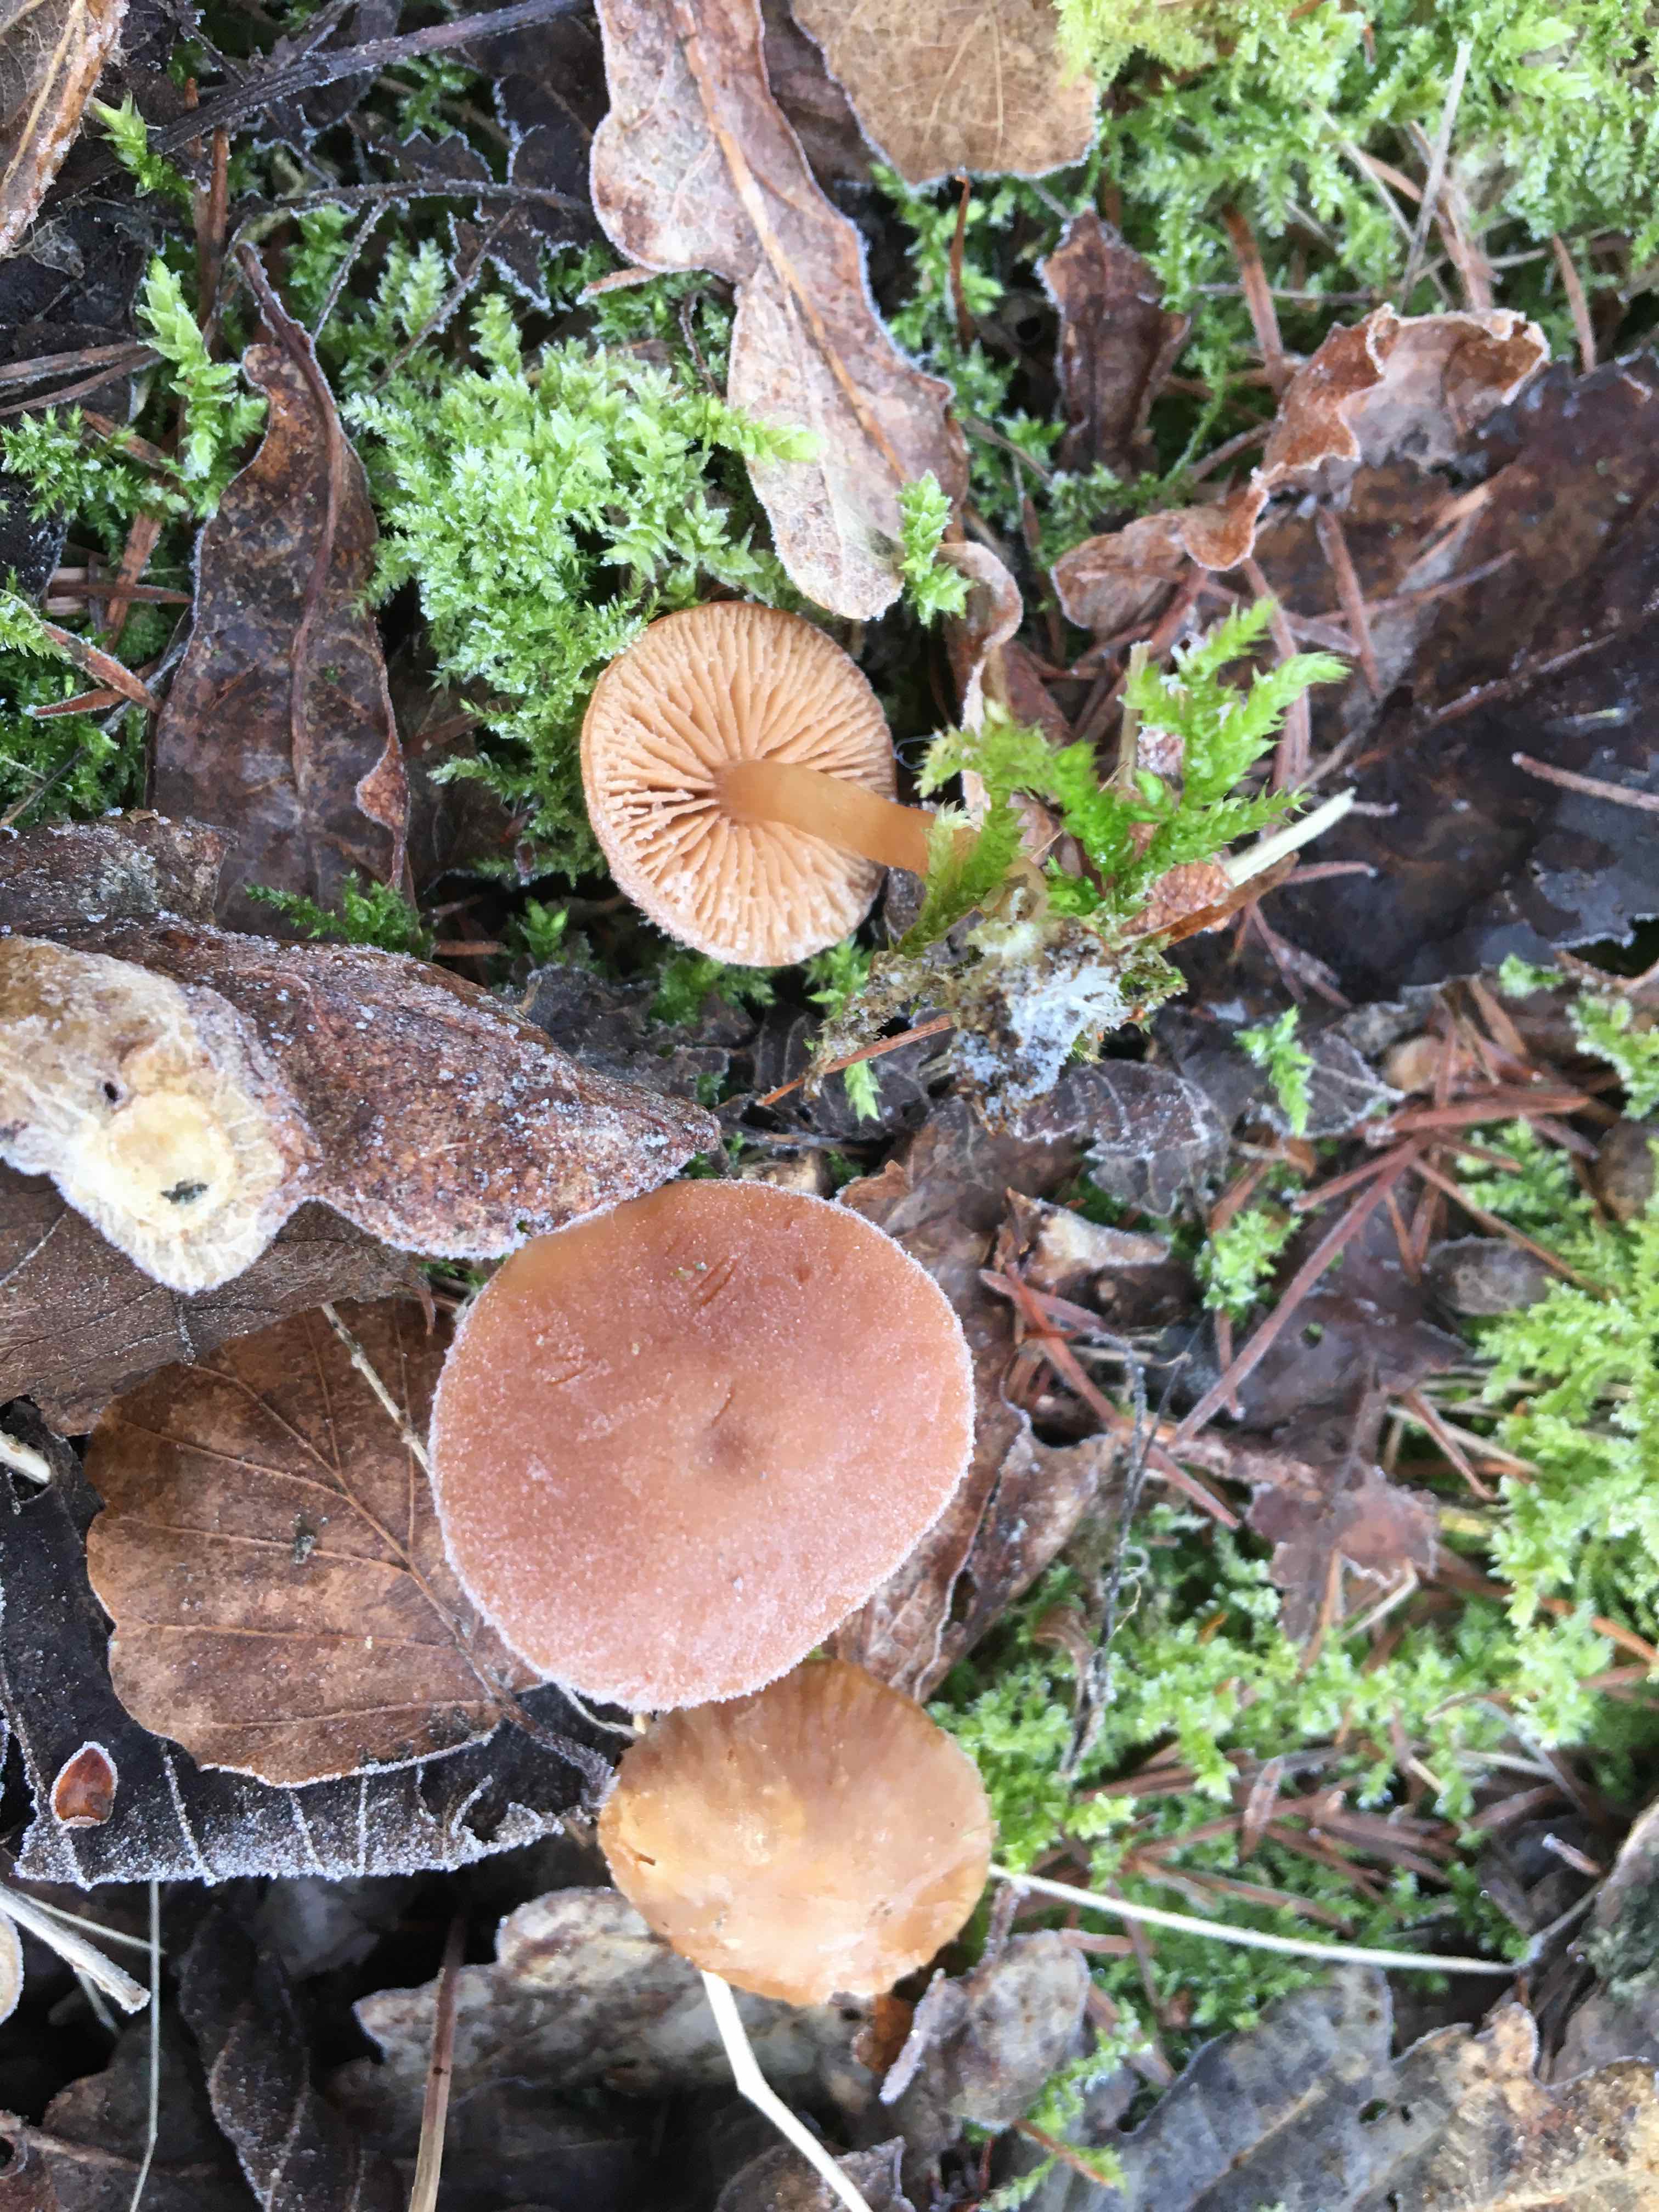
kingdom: Fungi
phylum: Basidiomycota
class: Agaricomycetes
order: Agaricales
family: Tubariaceae
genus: Tubaria
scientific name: Tubaria furfuracea
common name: kliddet fnughat
